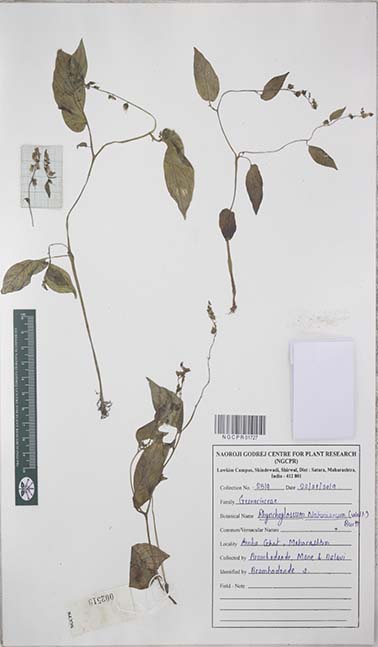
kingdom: Plantae
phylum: Tracheophyta
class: Magnoliopsida
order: Lamiales
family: Gesneriaceae
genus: Rhynchoglossum
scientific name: Rhynchoglossum notonianum
